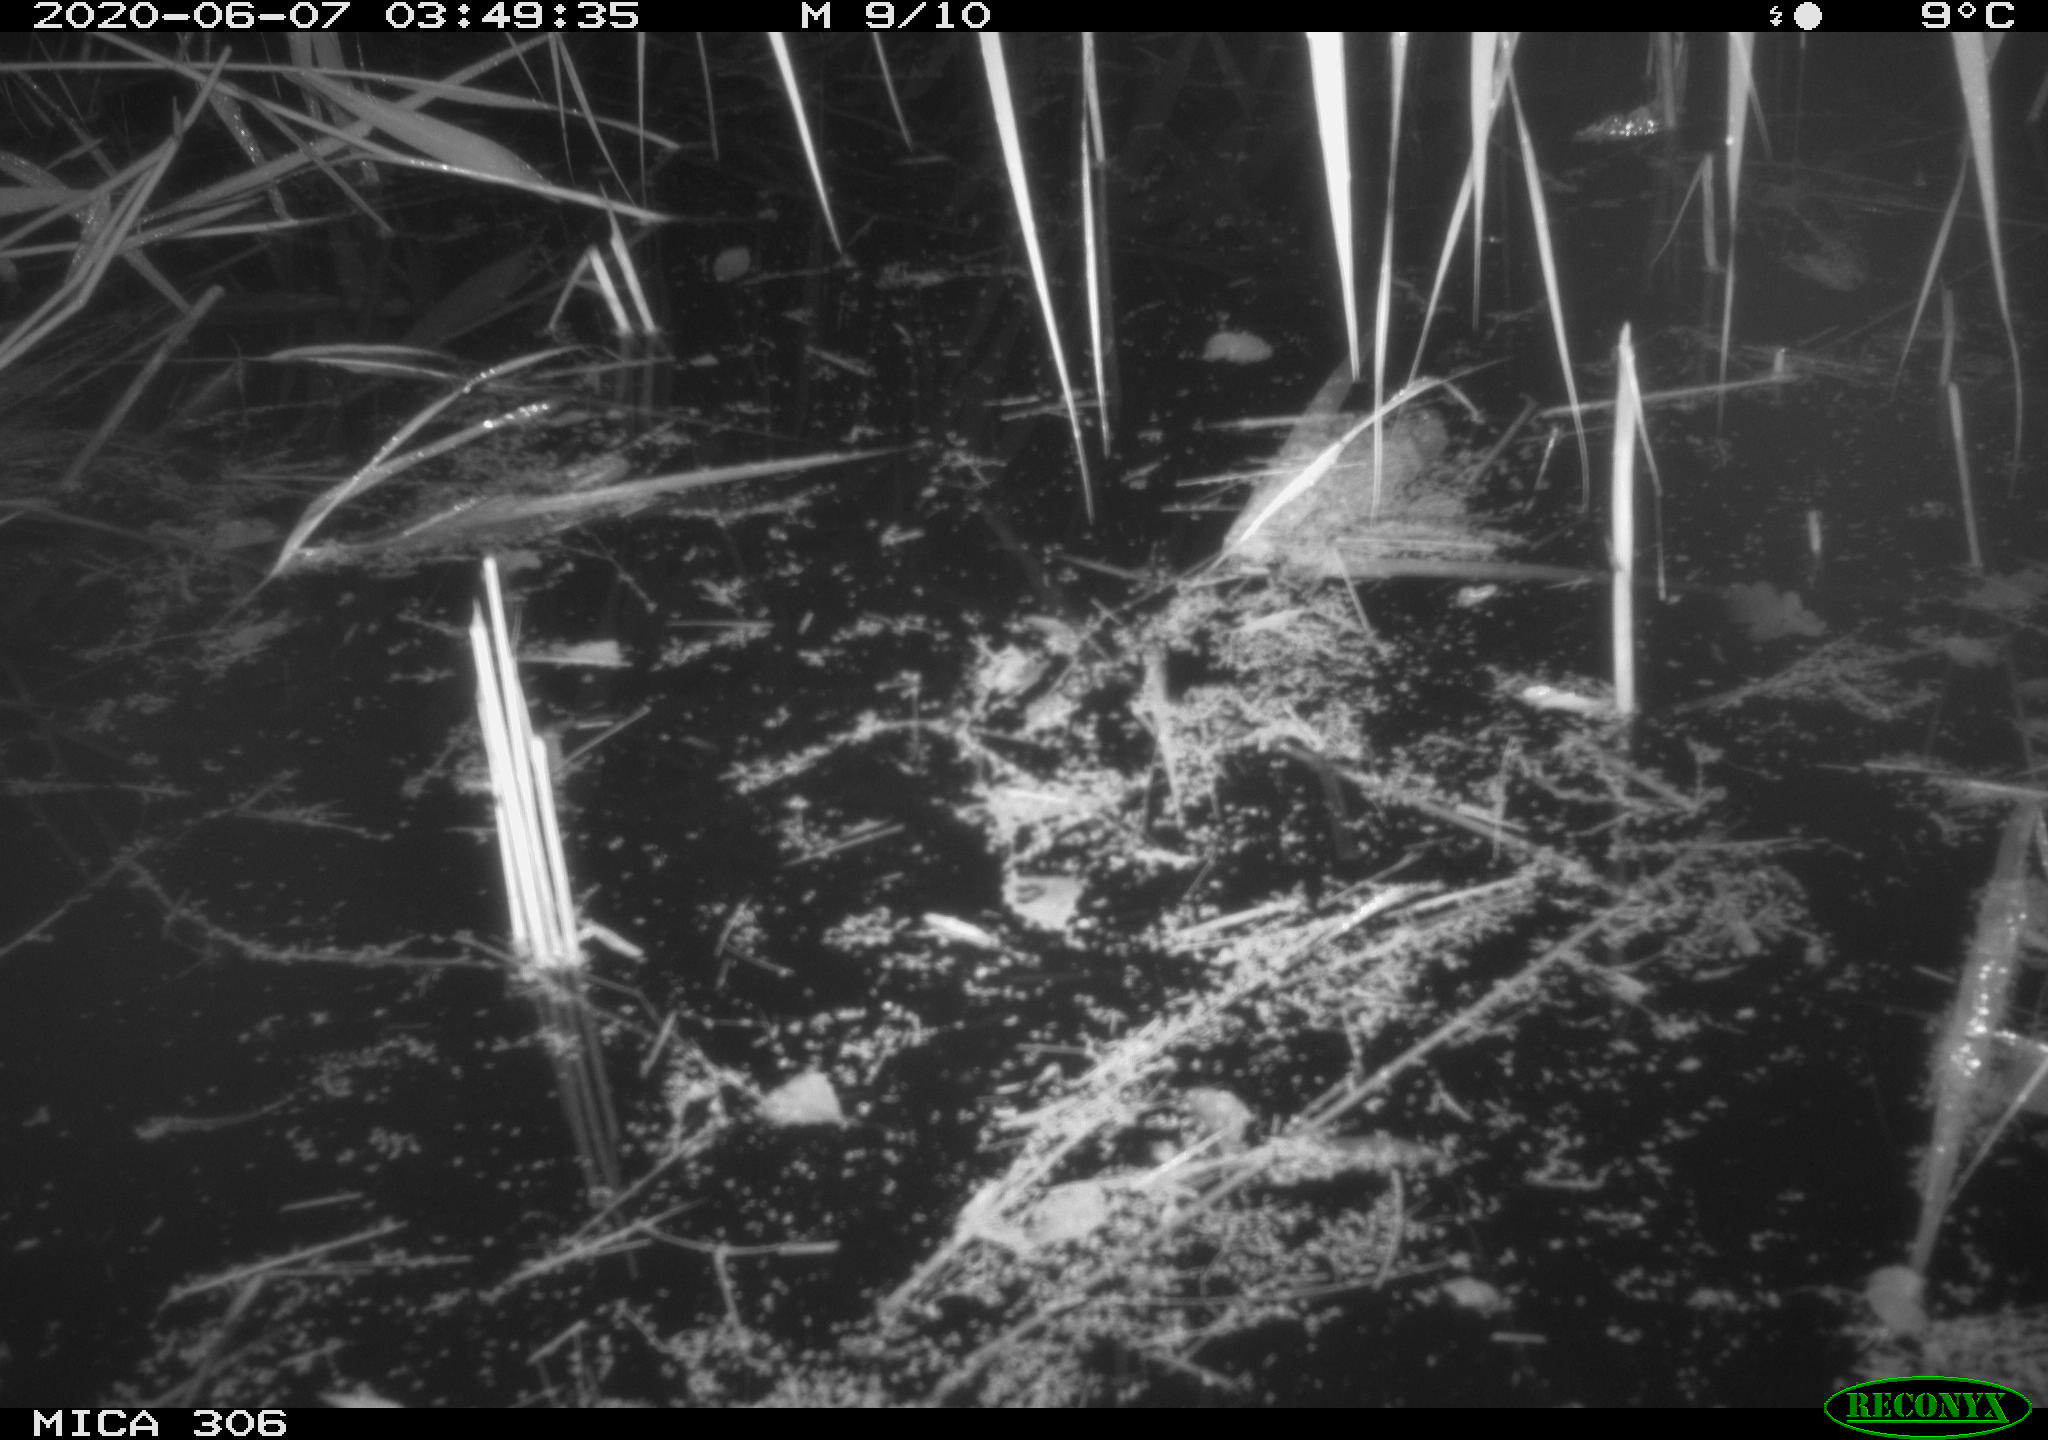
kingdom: Animalia
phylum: Chordata
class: Mammalia
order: Rodentia
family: Muridae
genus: Rattus
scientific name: Rattus norvegicus
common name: Brown rat
